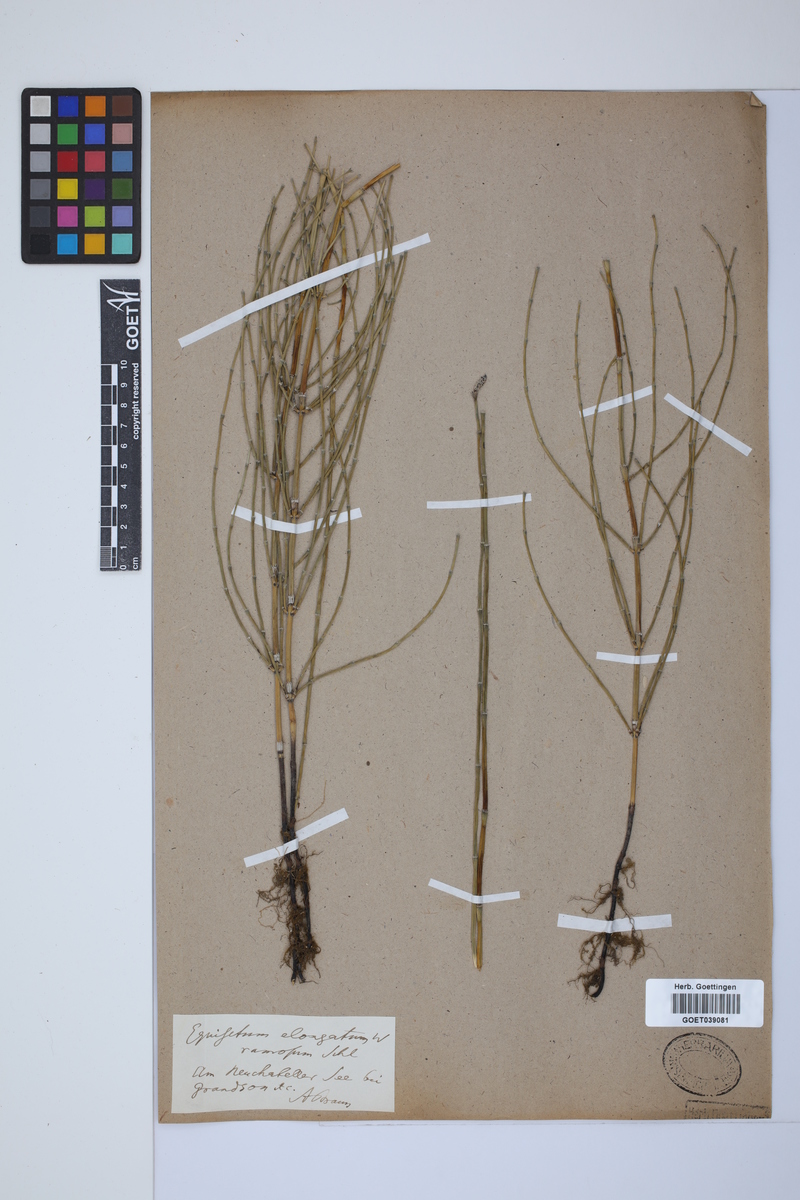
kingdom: Plantae
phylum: Tracheophyta
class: Polypodiopsida
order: Equisetales
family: Equisetaceae
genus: Equisetum
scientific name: Equisetum giganteum
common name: Giant horsetail
